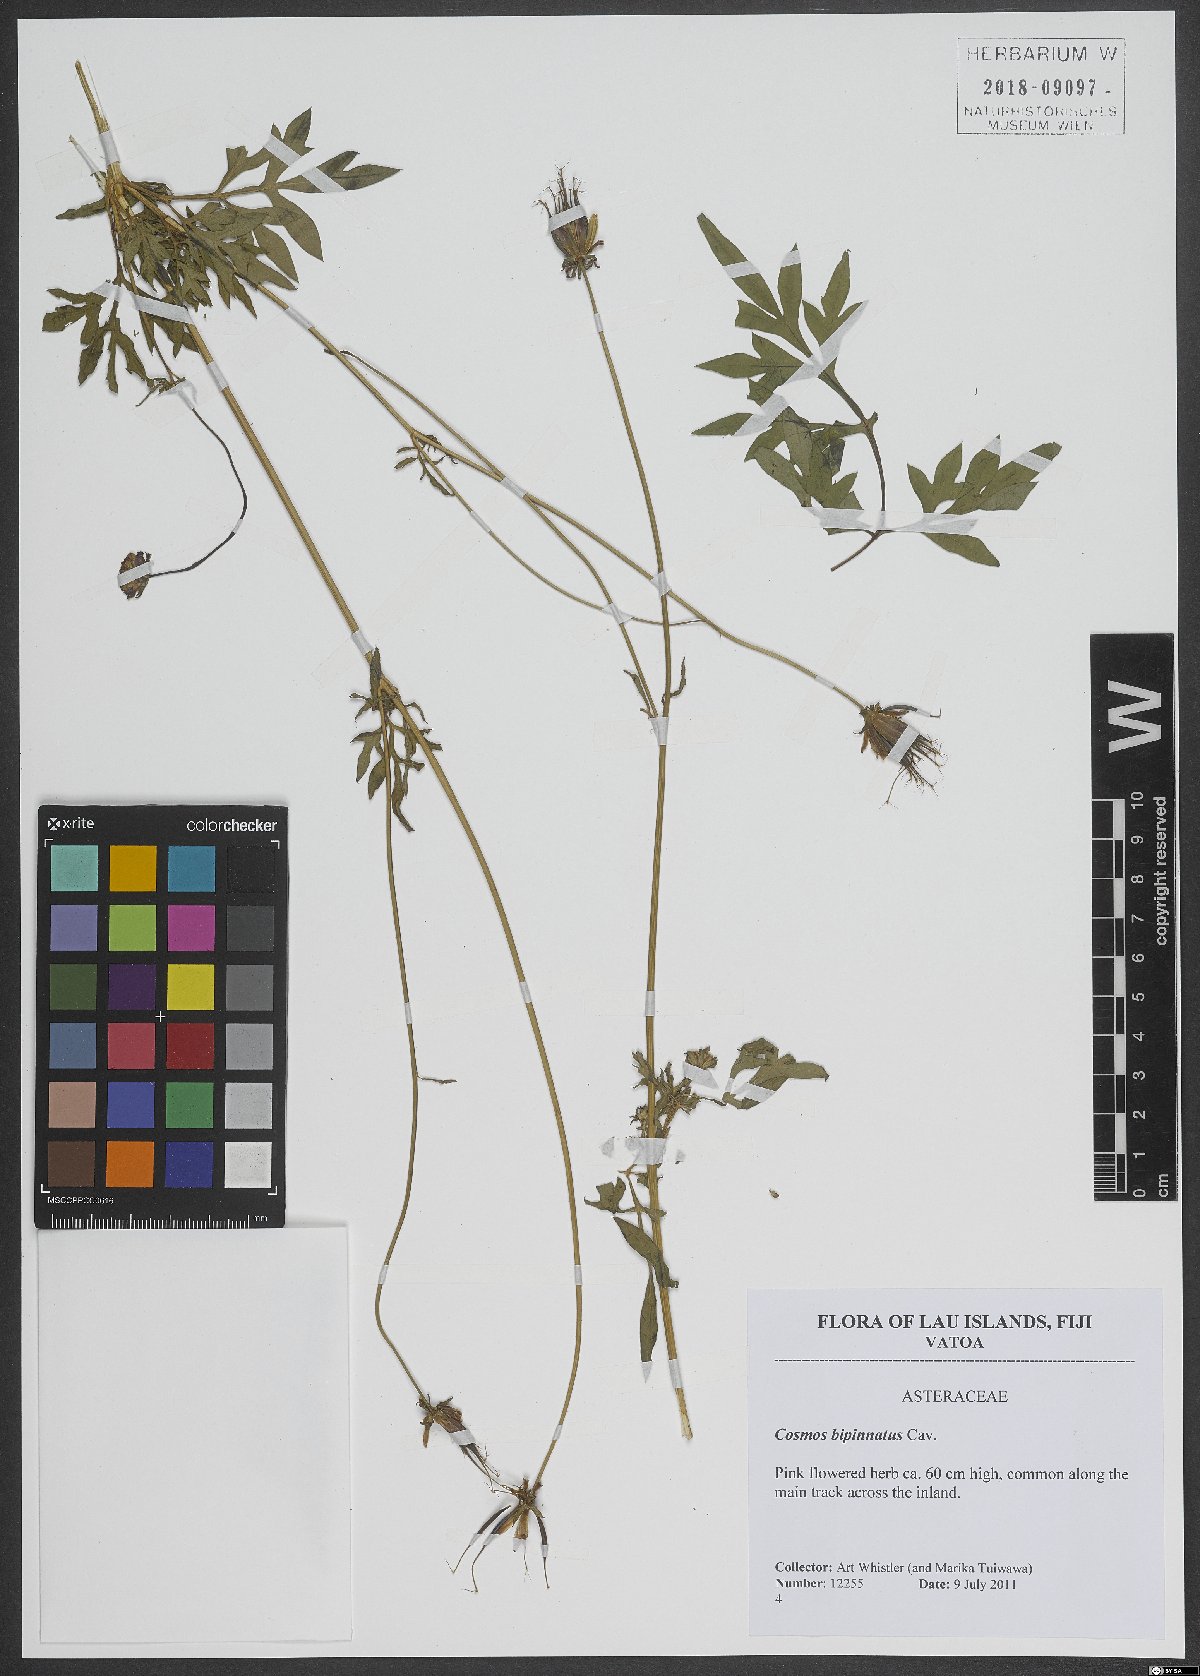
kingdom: Plantae
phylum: Tracheophyta
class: Magnoliopsida
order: Asterales
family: Asteraceae
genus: Cosmos
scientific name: Cosmos bipinnatus
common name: Garden cosmos
